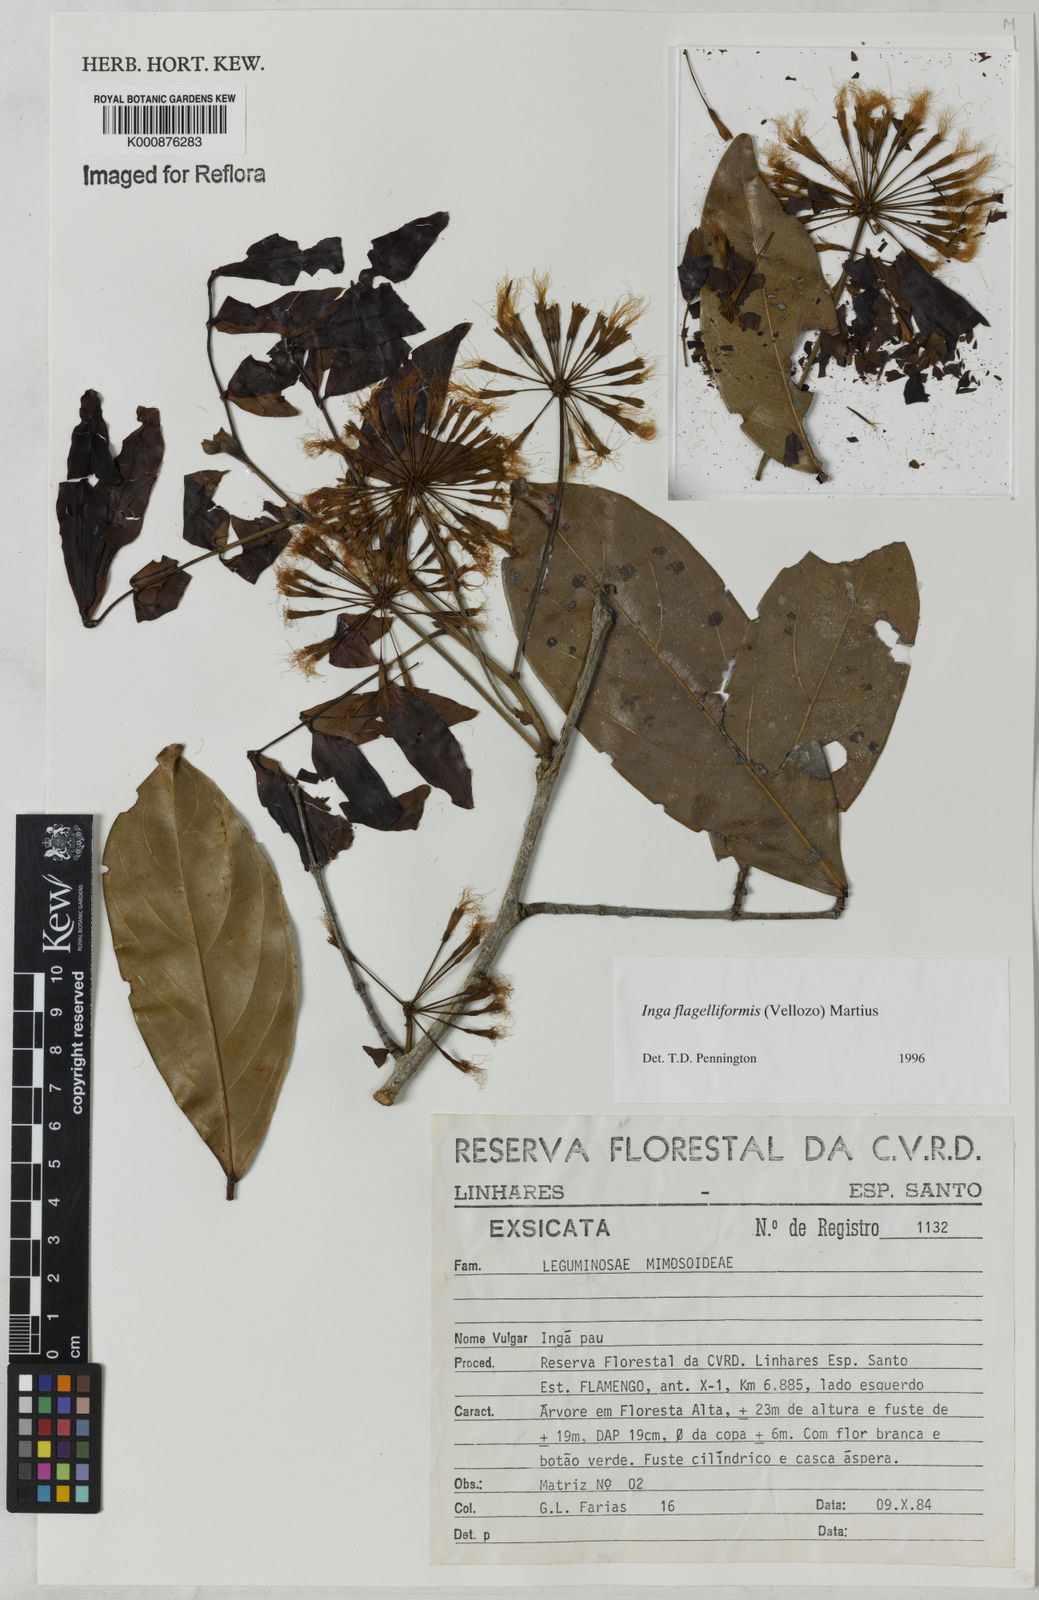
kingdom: Plantae
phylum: Tracheophyta
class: Magnoliopsida
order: Fabales
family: Fabaceae
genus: Inga
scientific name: Inga flagelliformis
